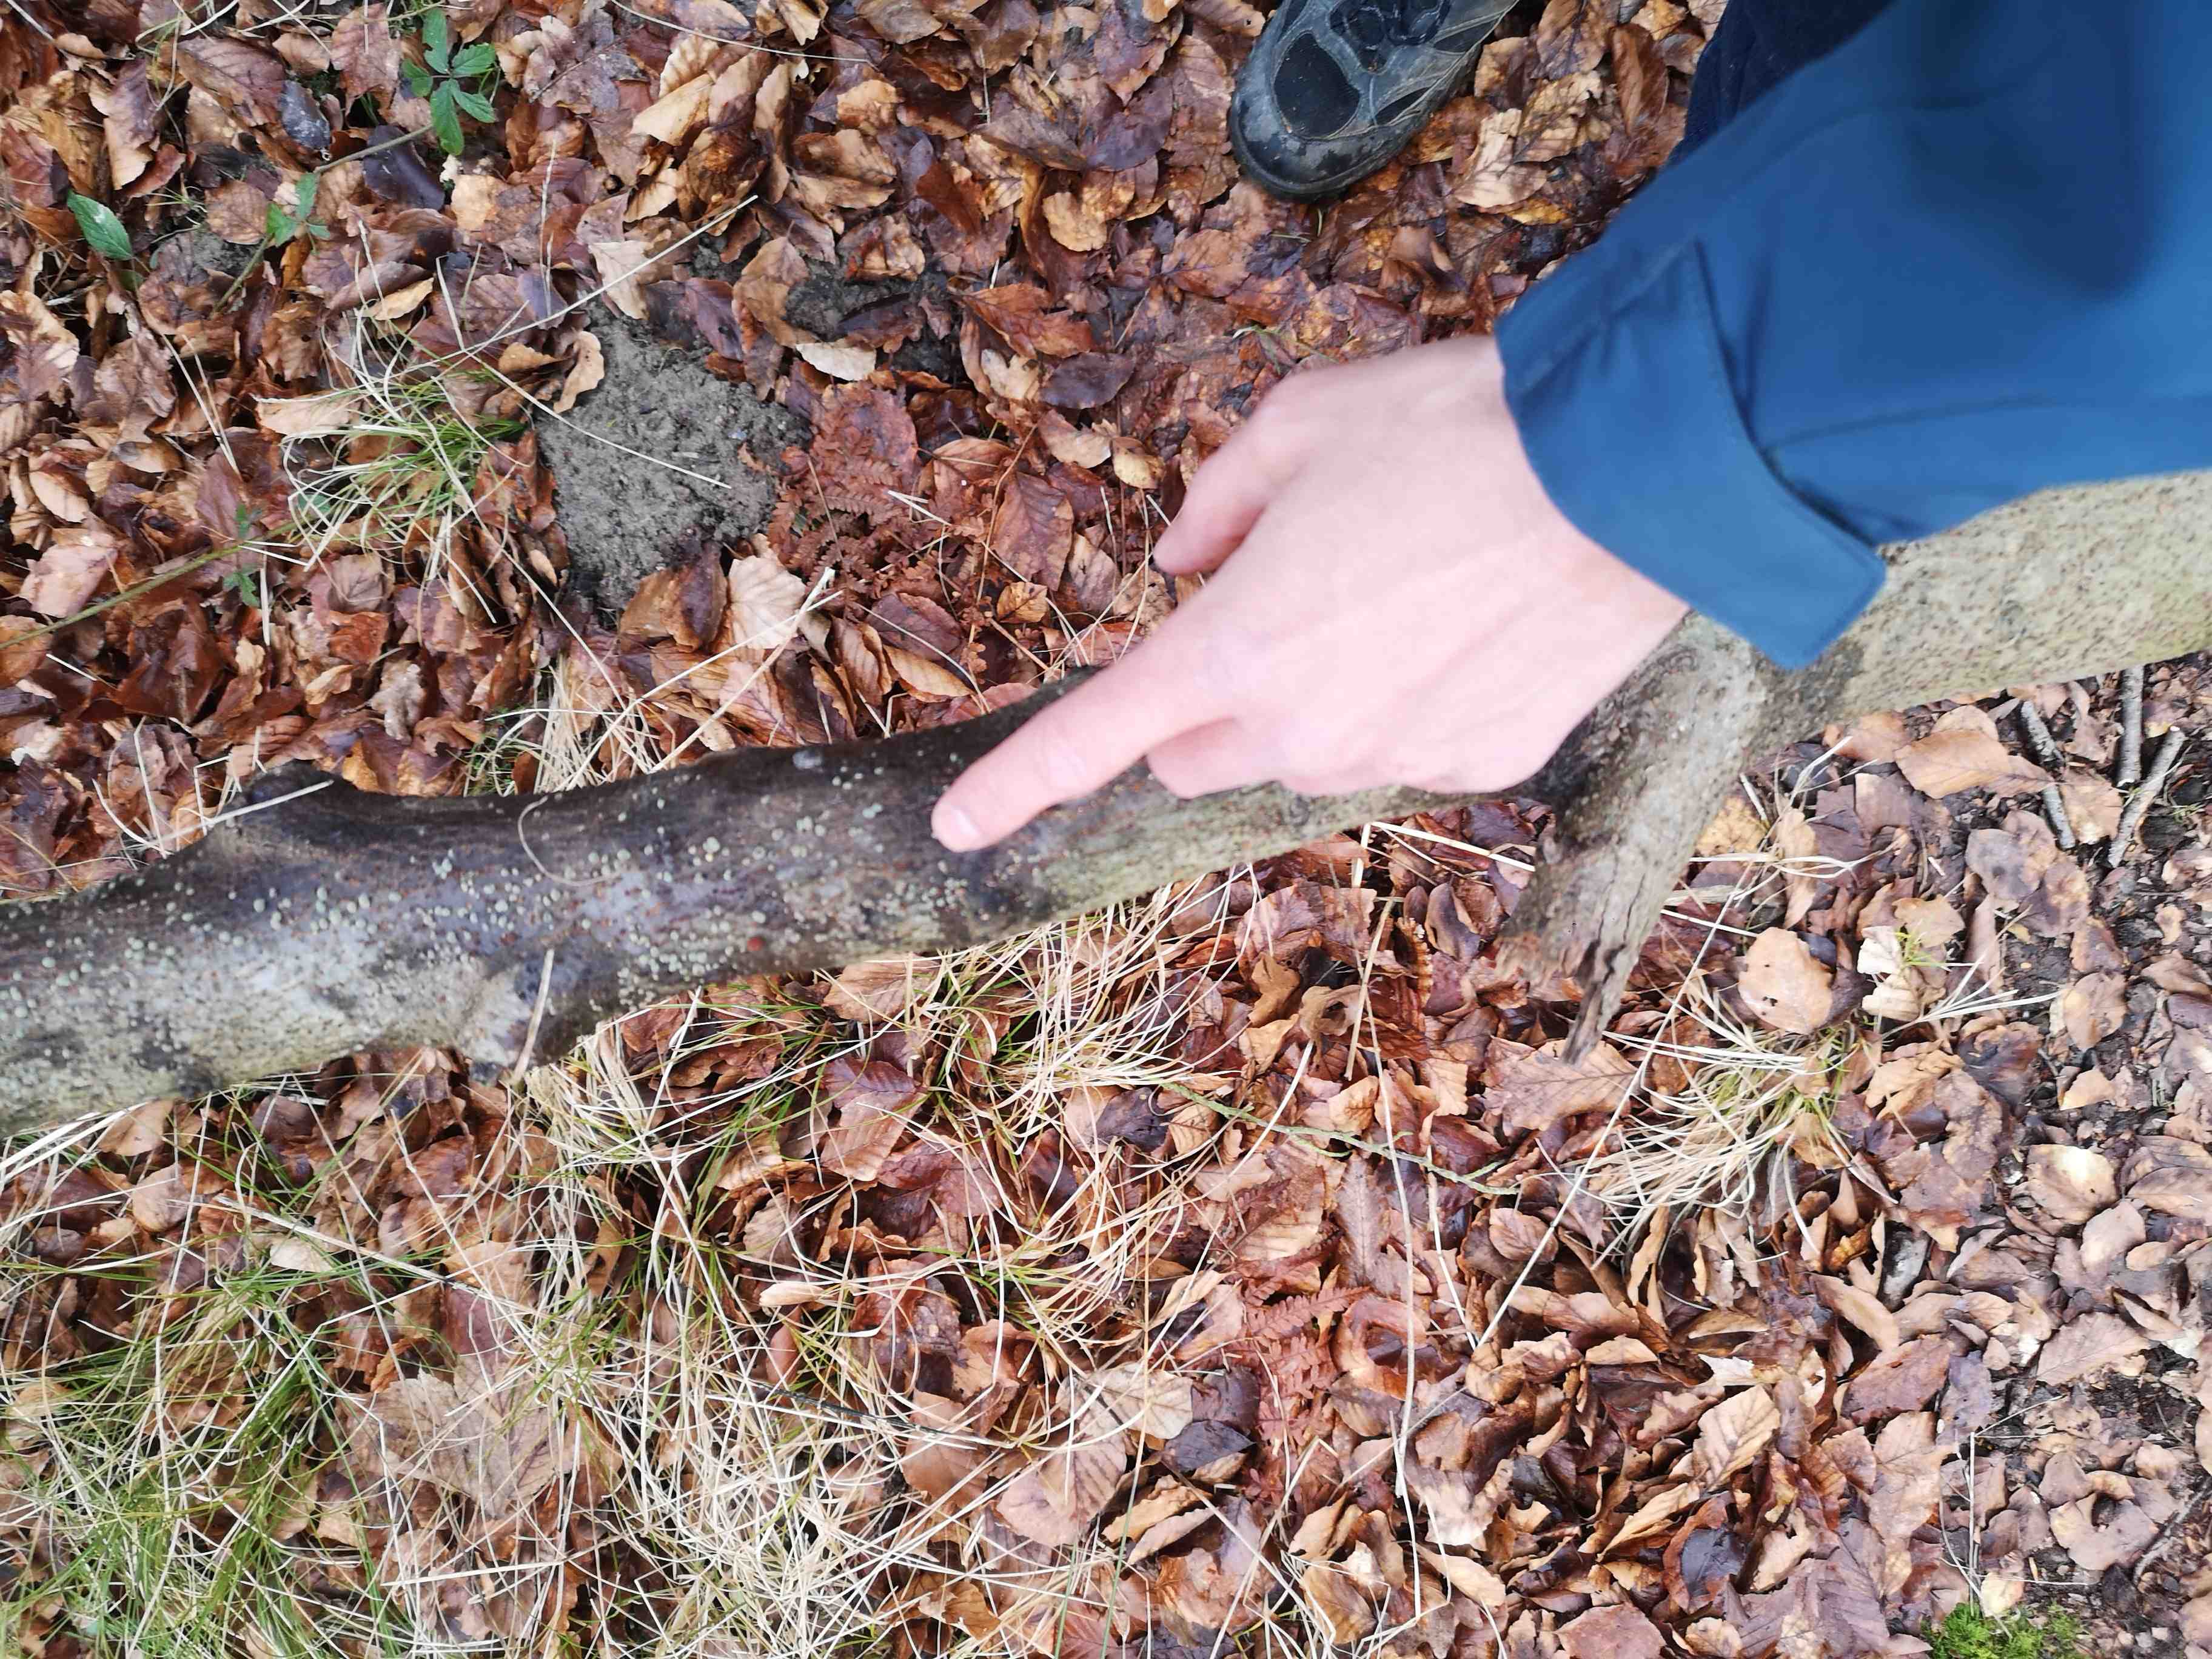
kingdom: Fungi
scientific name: Fungi
